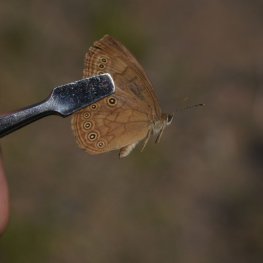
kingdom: Animalia
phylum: Arthropoda
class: Insecta
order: Lepidoptera
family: Nymphalidae
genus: Lethe
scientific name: Lethe eurydice
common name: Eyed Brown
